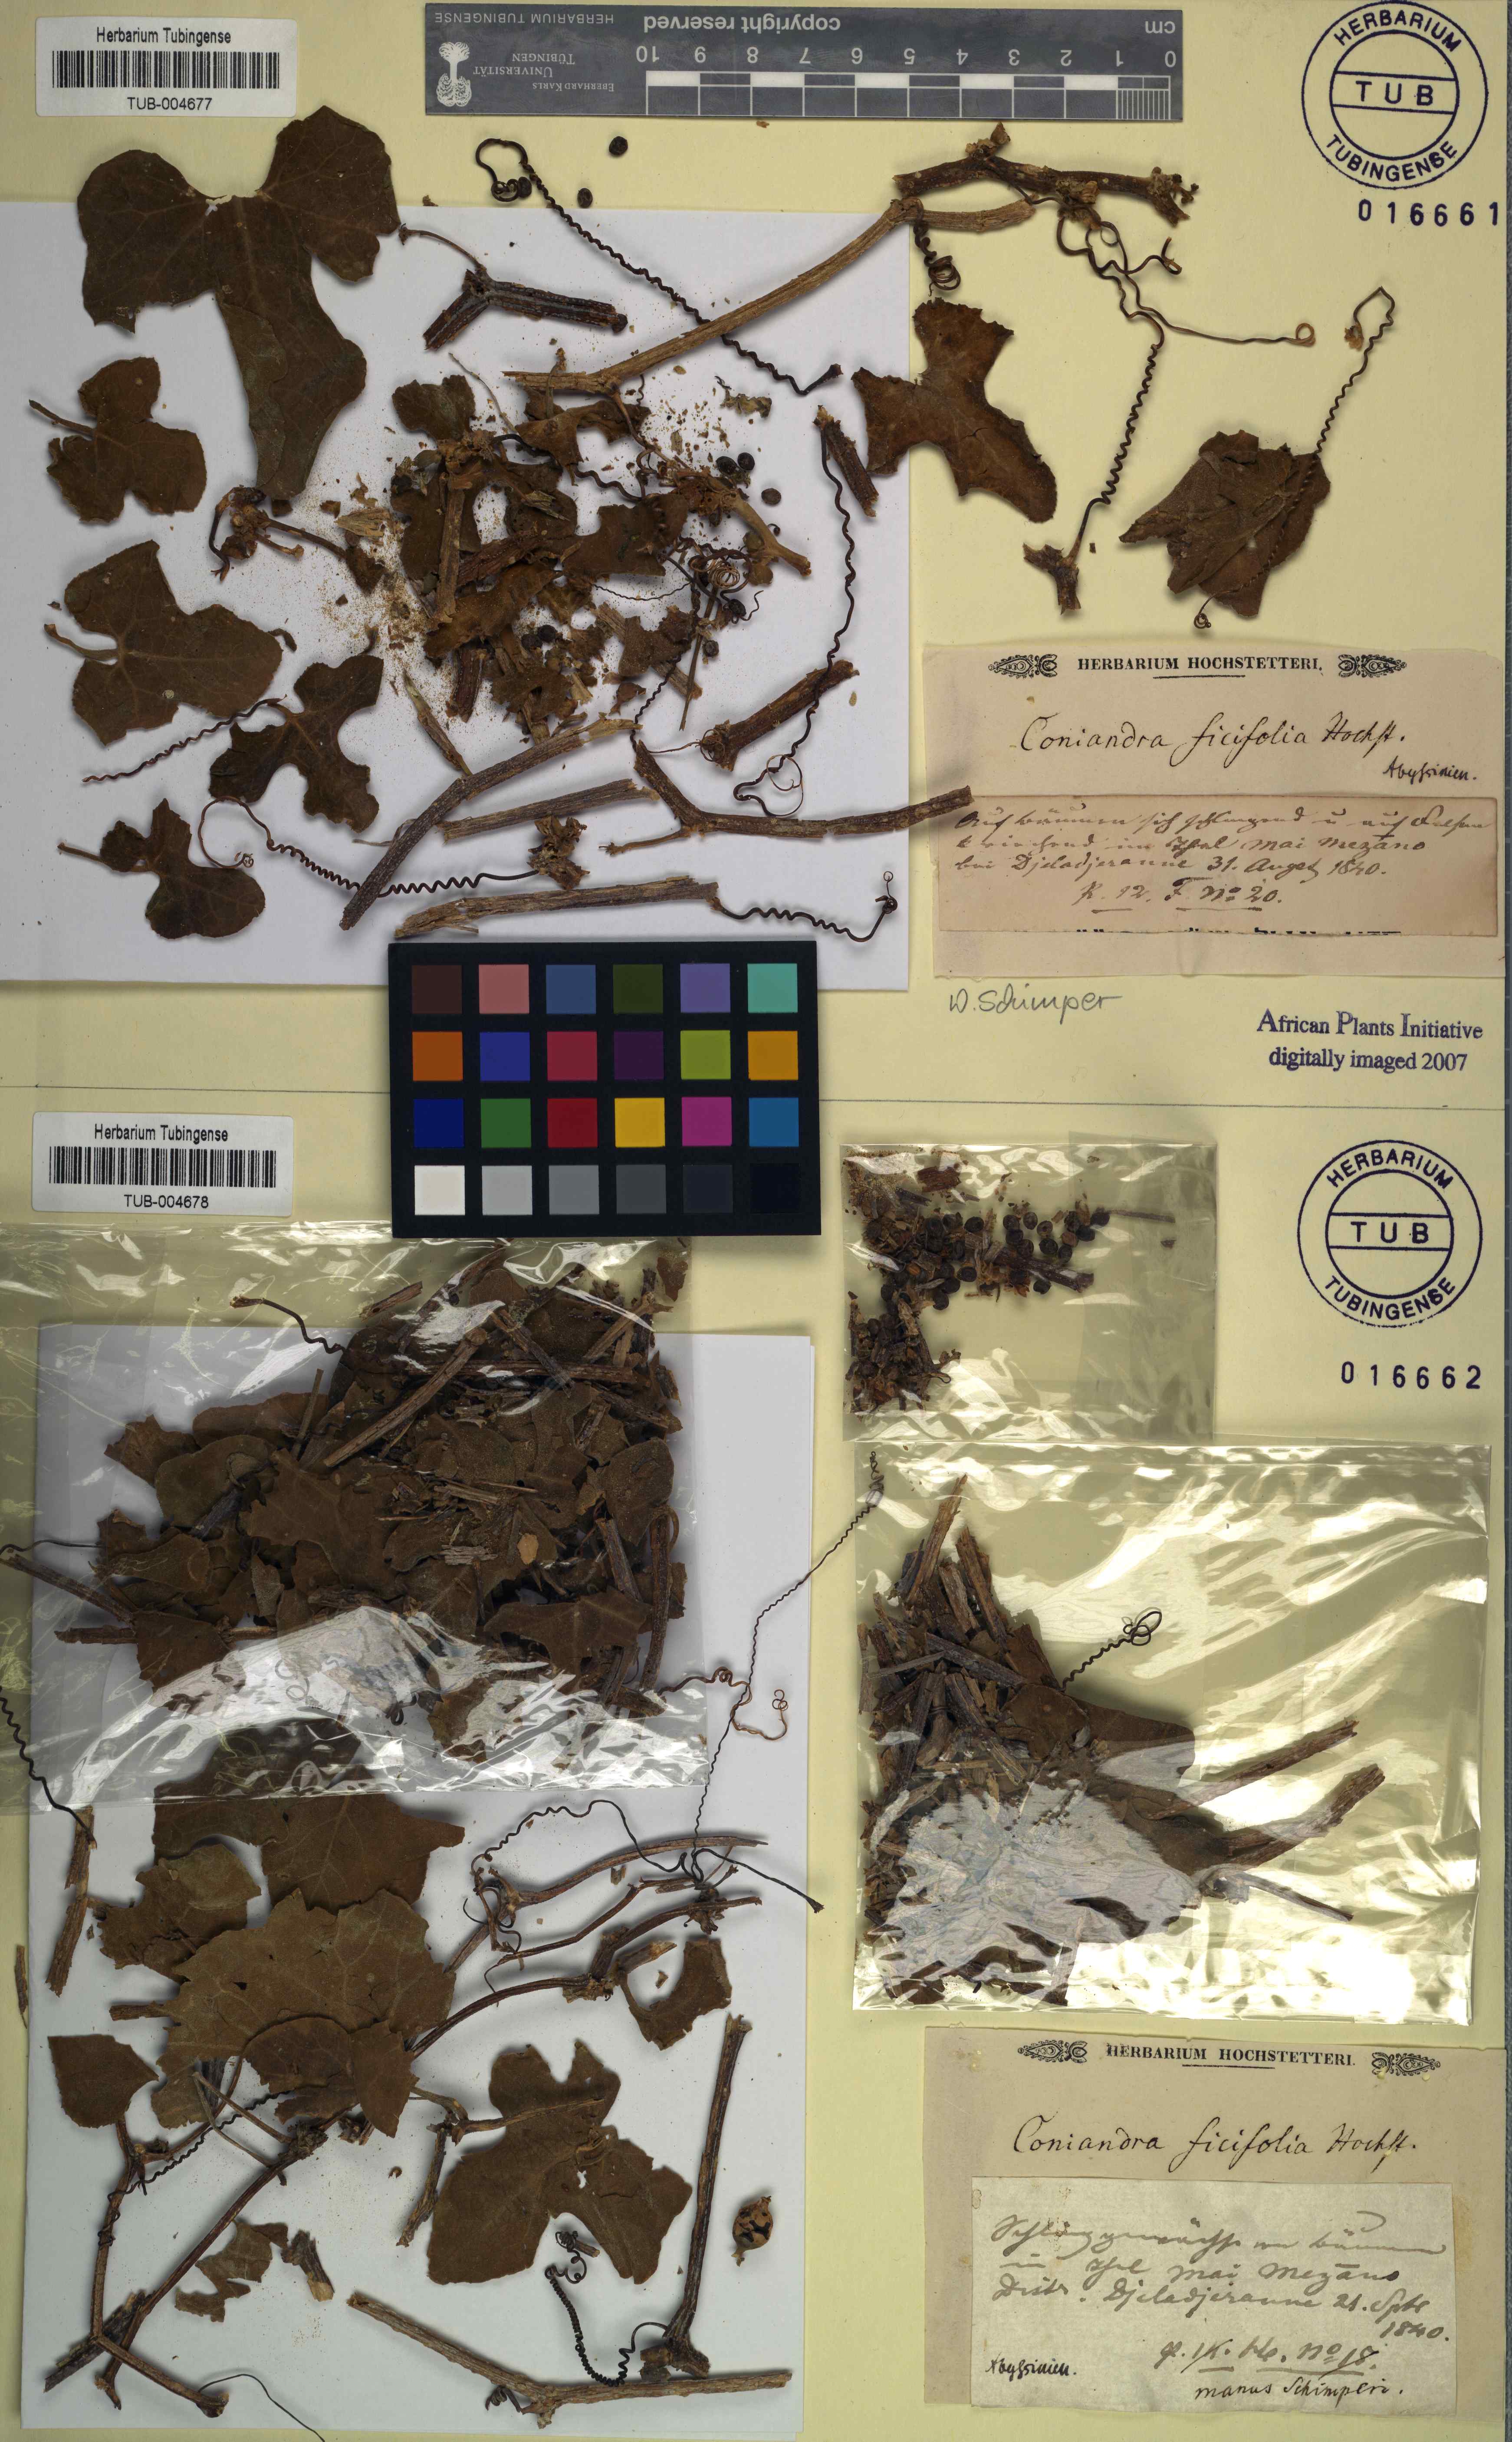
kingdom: Plantae
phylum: Tracheophyta
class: Magnoliopsida
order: Cucurbitales
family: Cucurbitaceae
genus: Kedrostis
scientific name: Kedrostis
